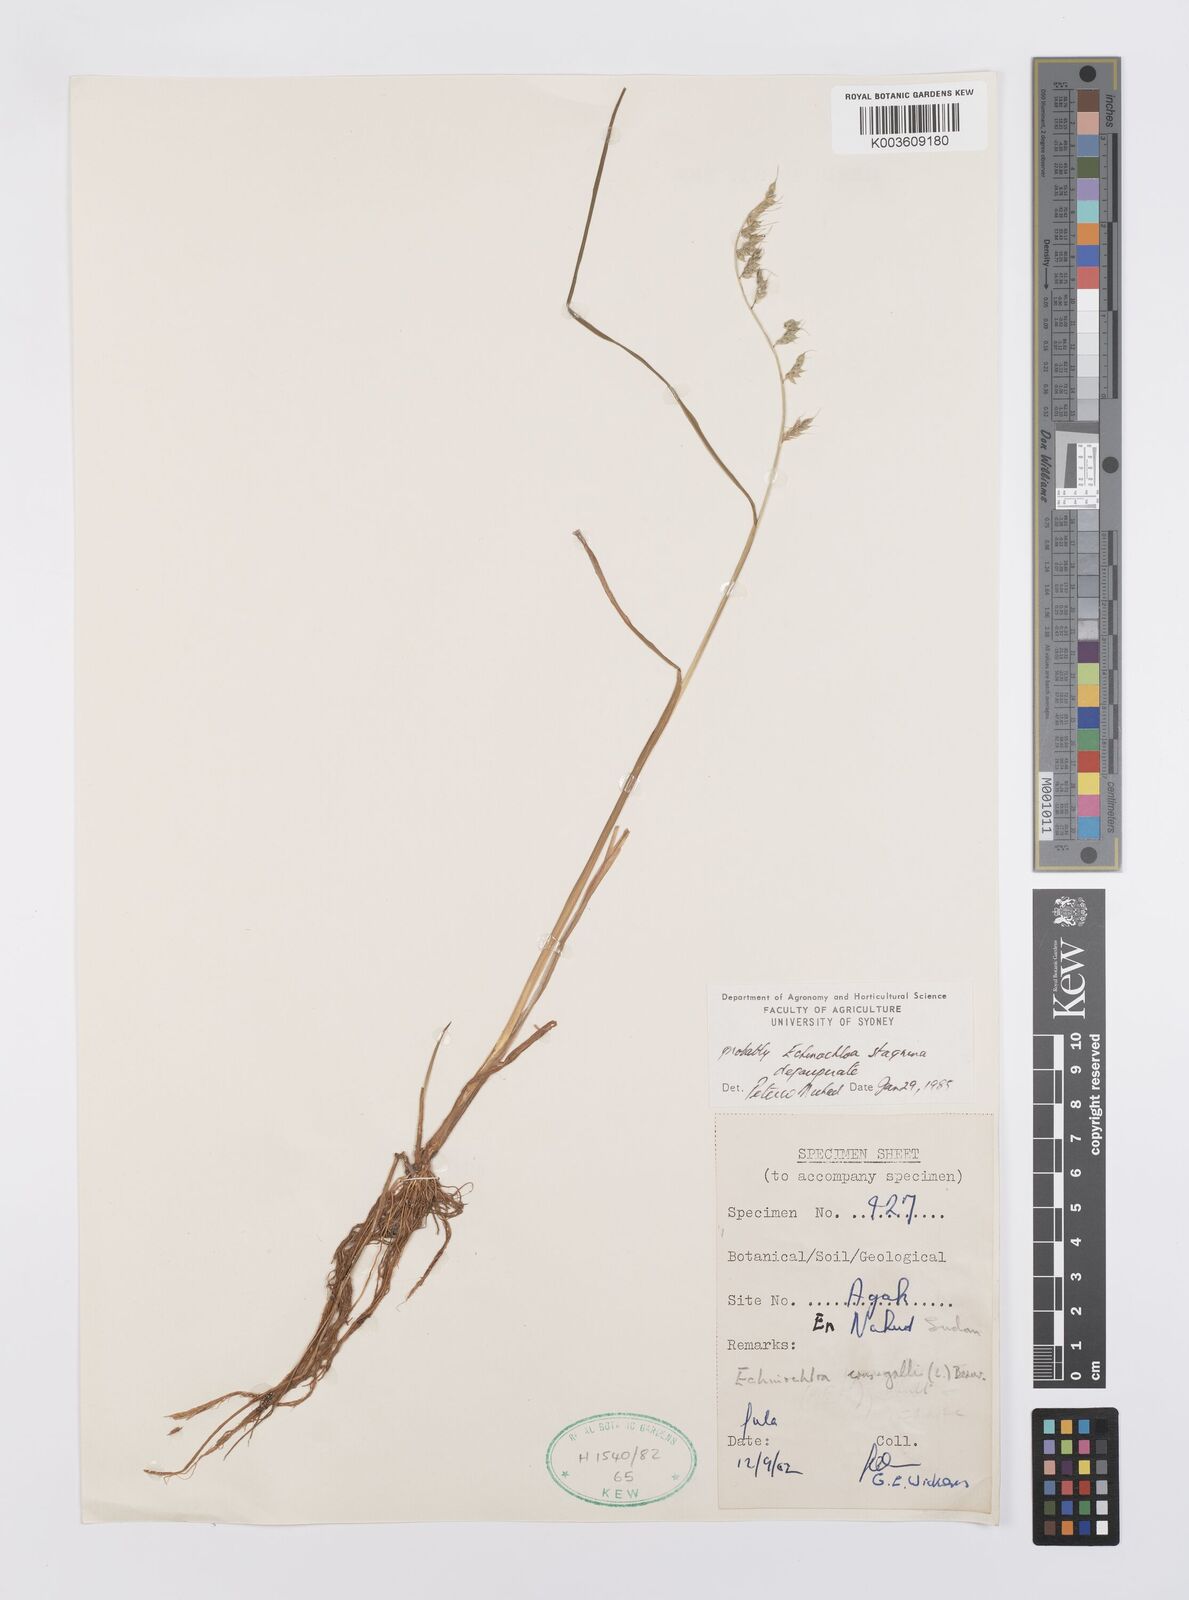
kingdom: Plantae
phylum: Tracheophyta
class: Liliopsida
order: Poales
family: Poaceae
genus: Echinochloa
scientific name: Echinochloa stagnina
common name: Burgu grass
